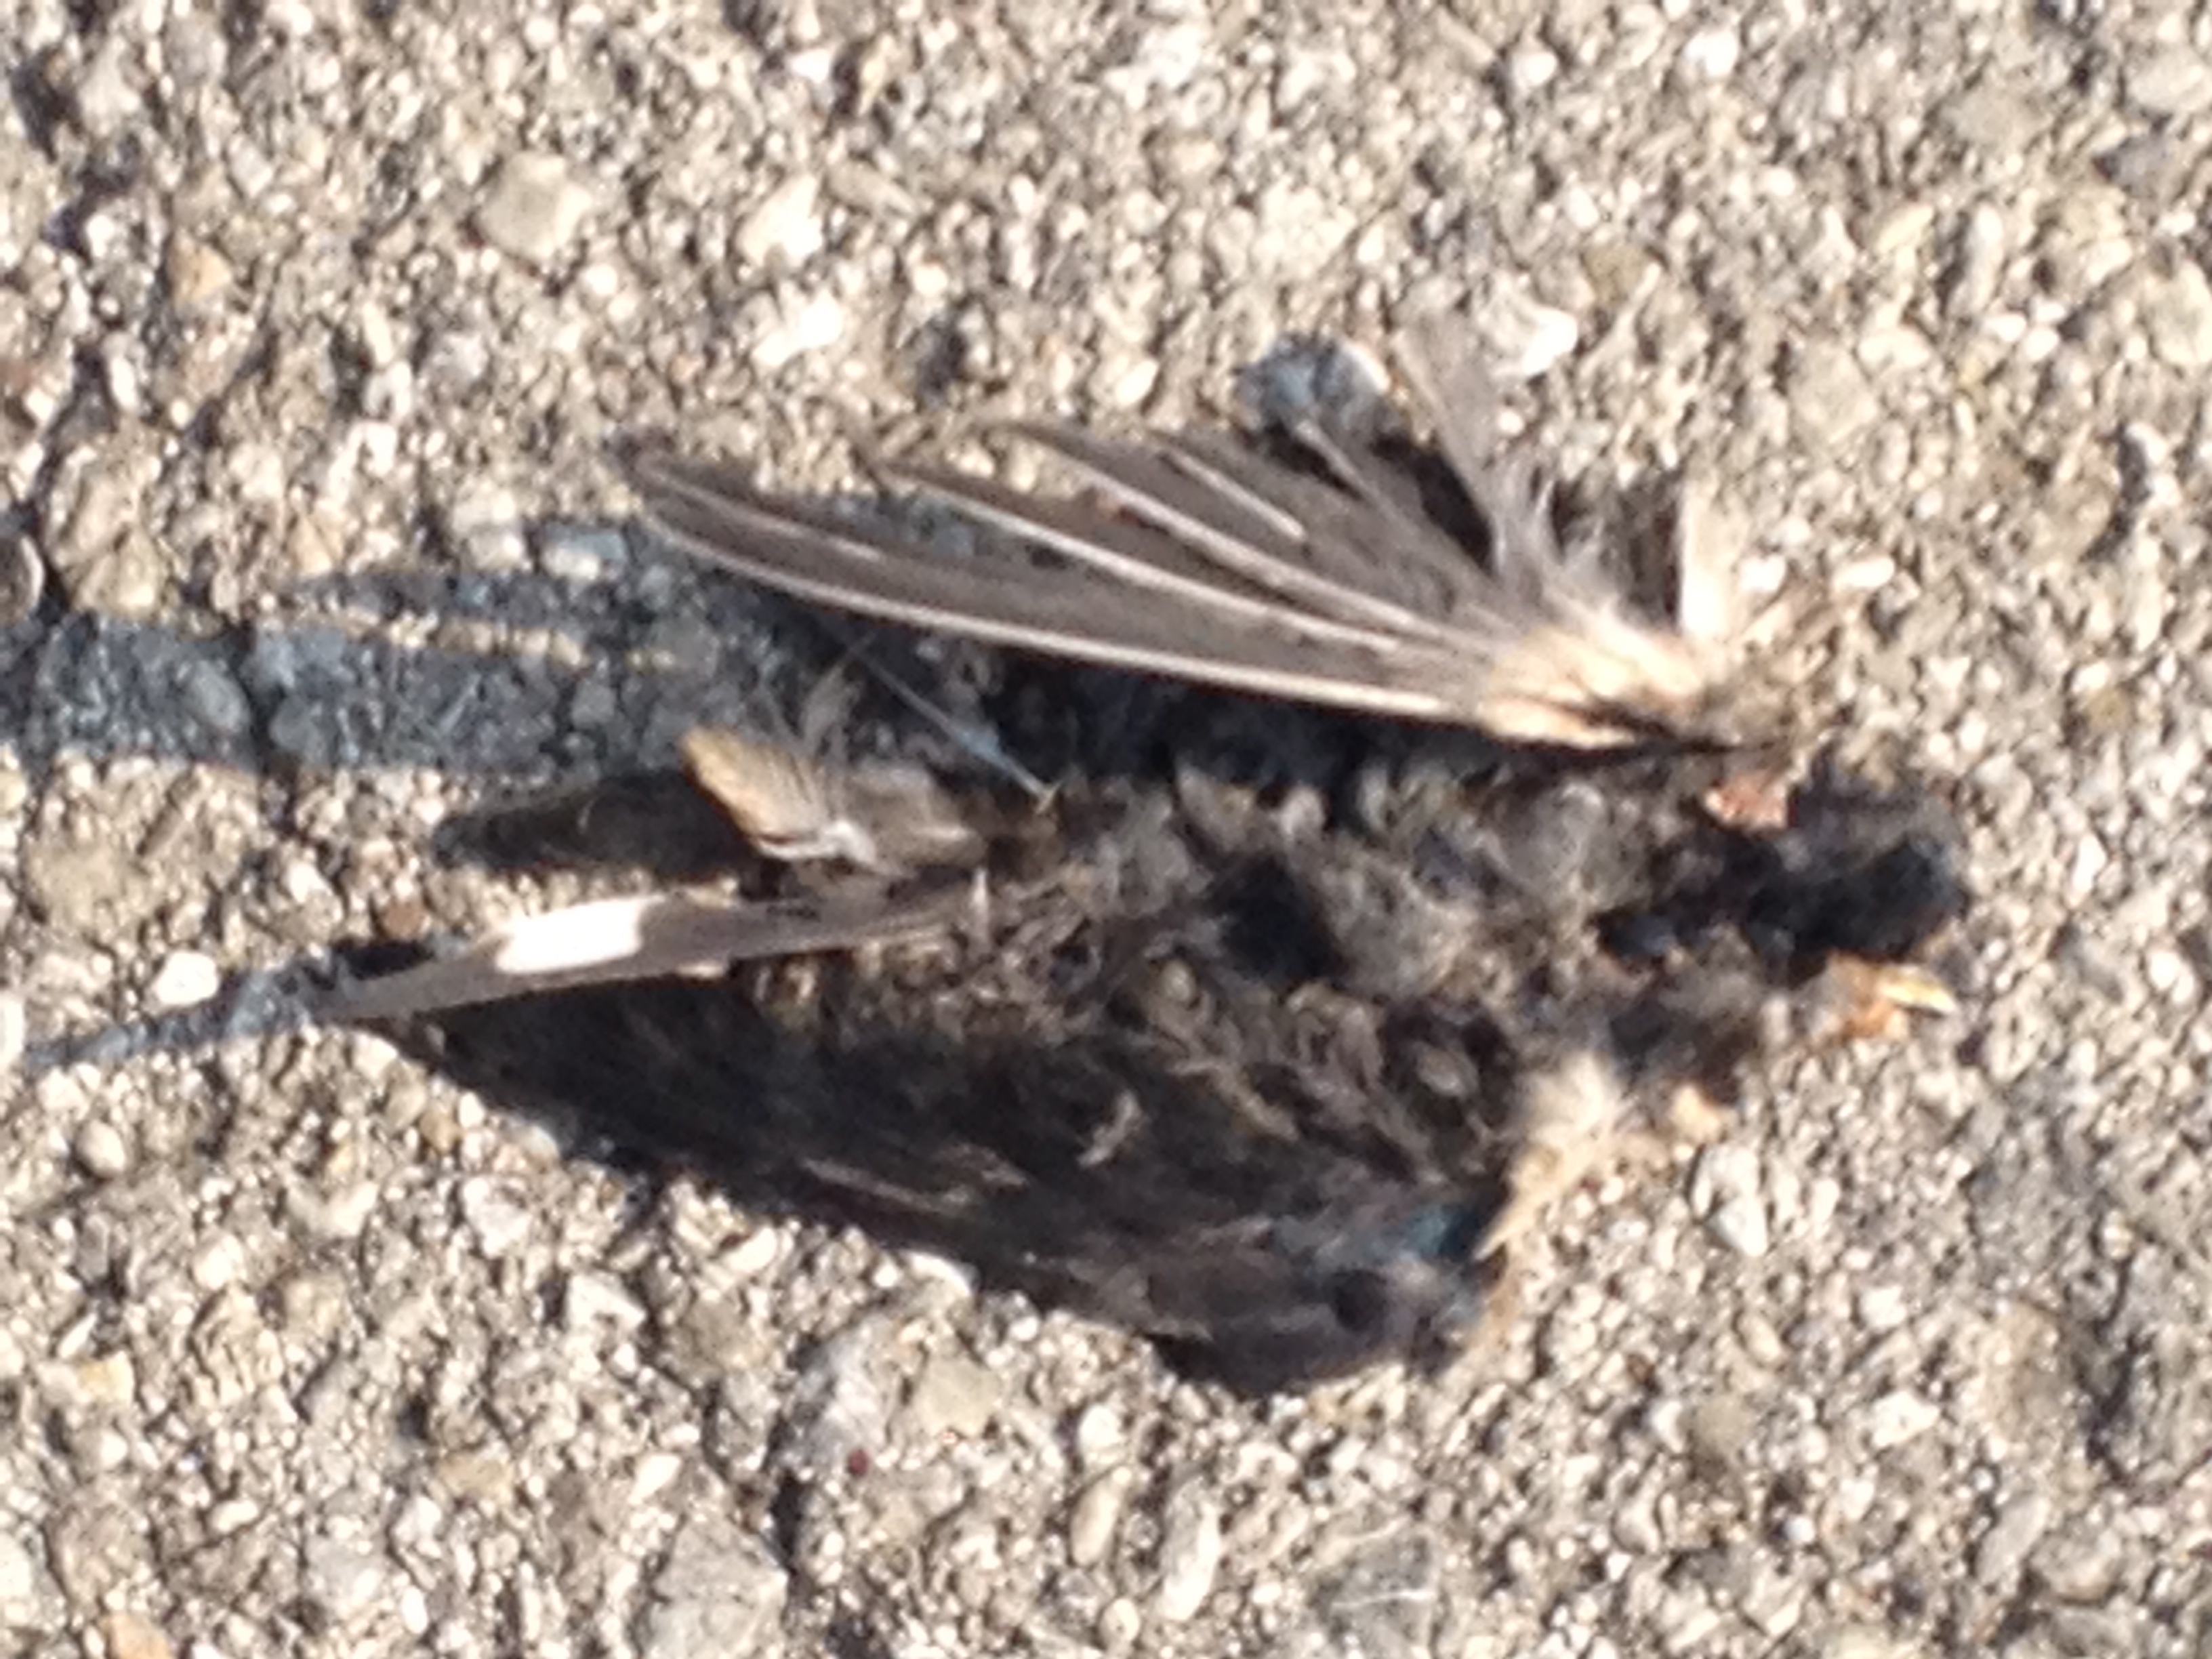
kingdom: Animalia
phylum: Chordata
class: Aves
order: Passeriformes
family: Hirundinidae
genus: Hirundo
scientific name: Hirundo rustica
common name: Barn swallow
